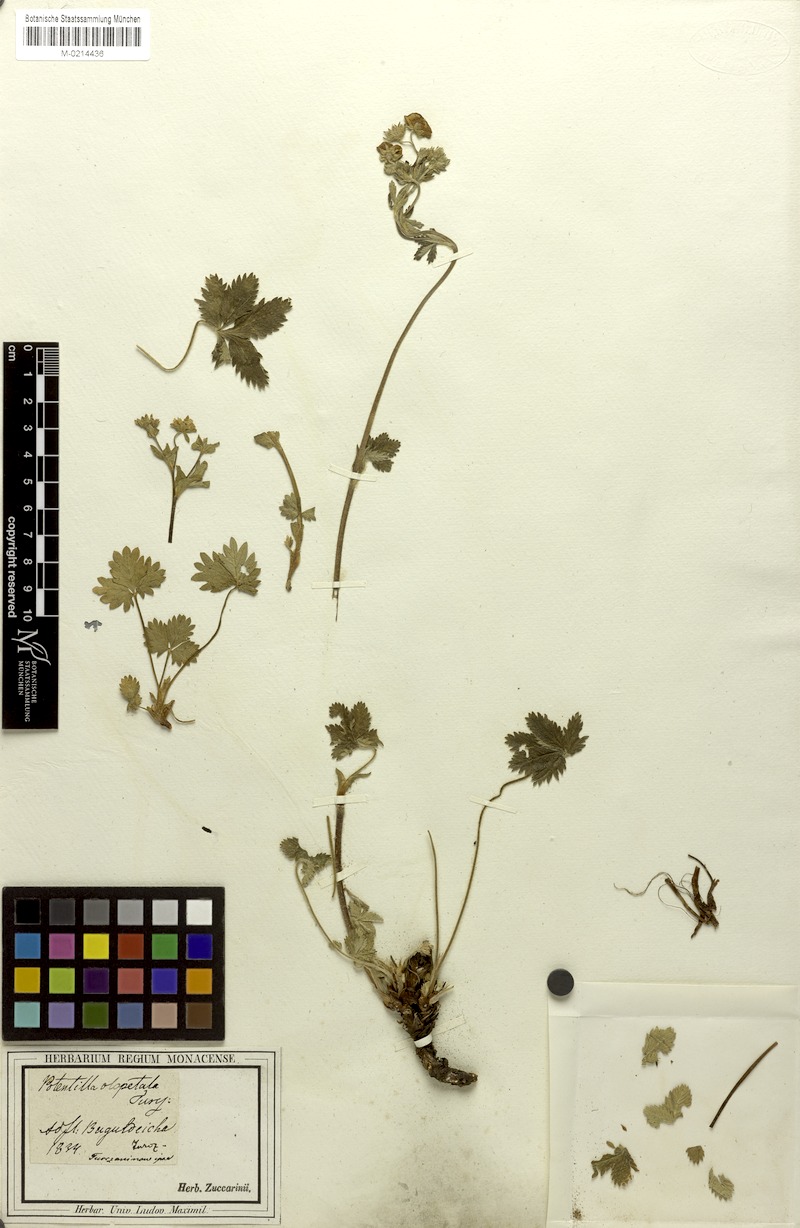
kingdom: Plantae
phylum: Tracheophyta
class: Magnoliopsida
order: Rosales
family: Rosaceae
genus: Potentilla
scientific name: Potentilla chrysantha
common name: Thuringian cinquefoil
